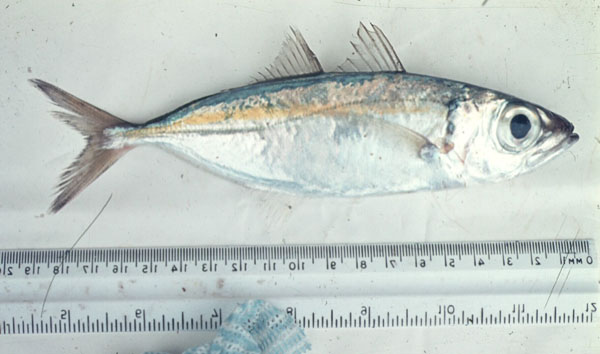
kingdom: Animalia
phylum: Chordata
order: Perciformes
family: Carangidae
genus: Selar
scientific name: Selar crumenophthalmus
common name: Bigeye scad
